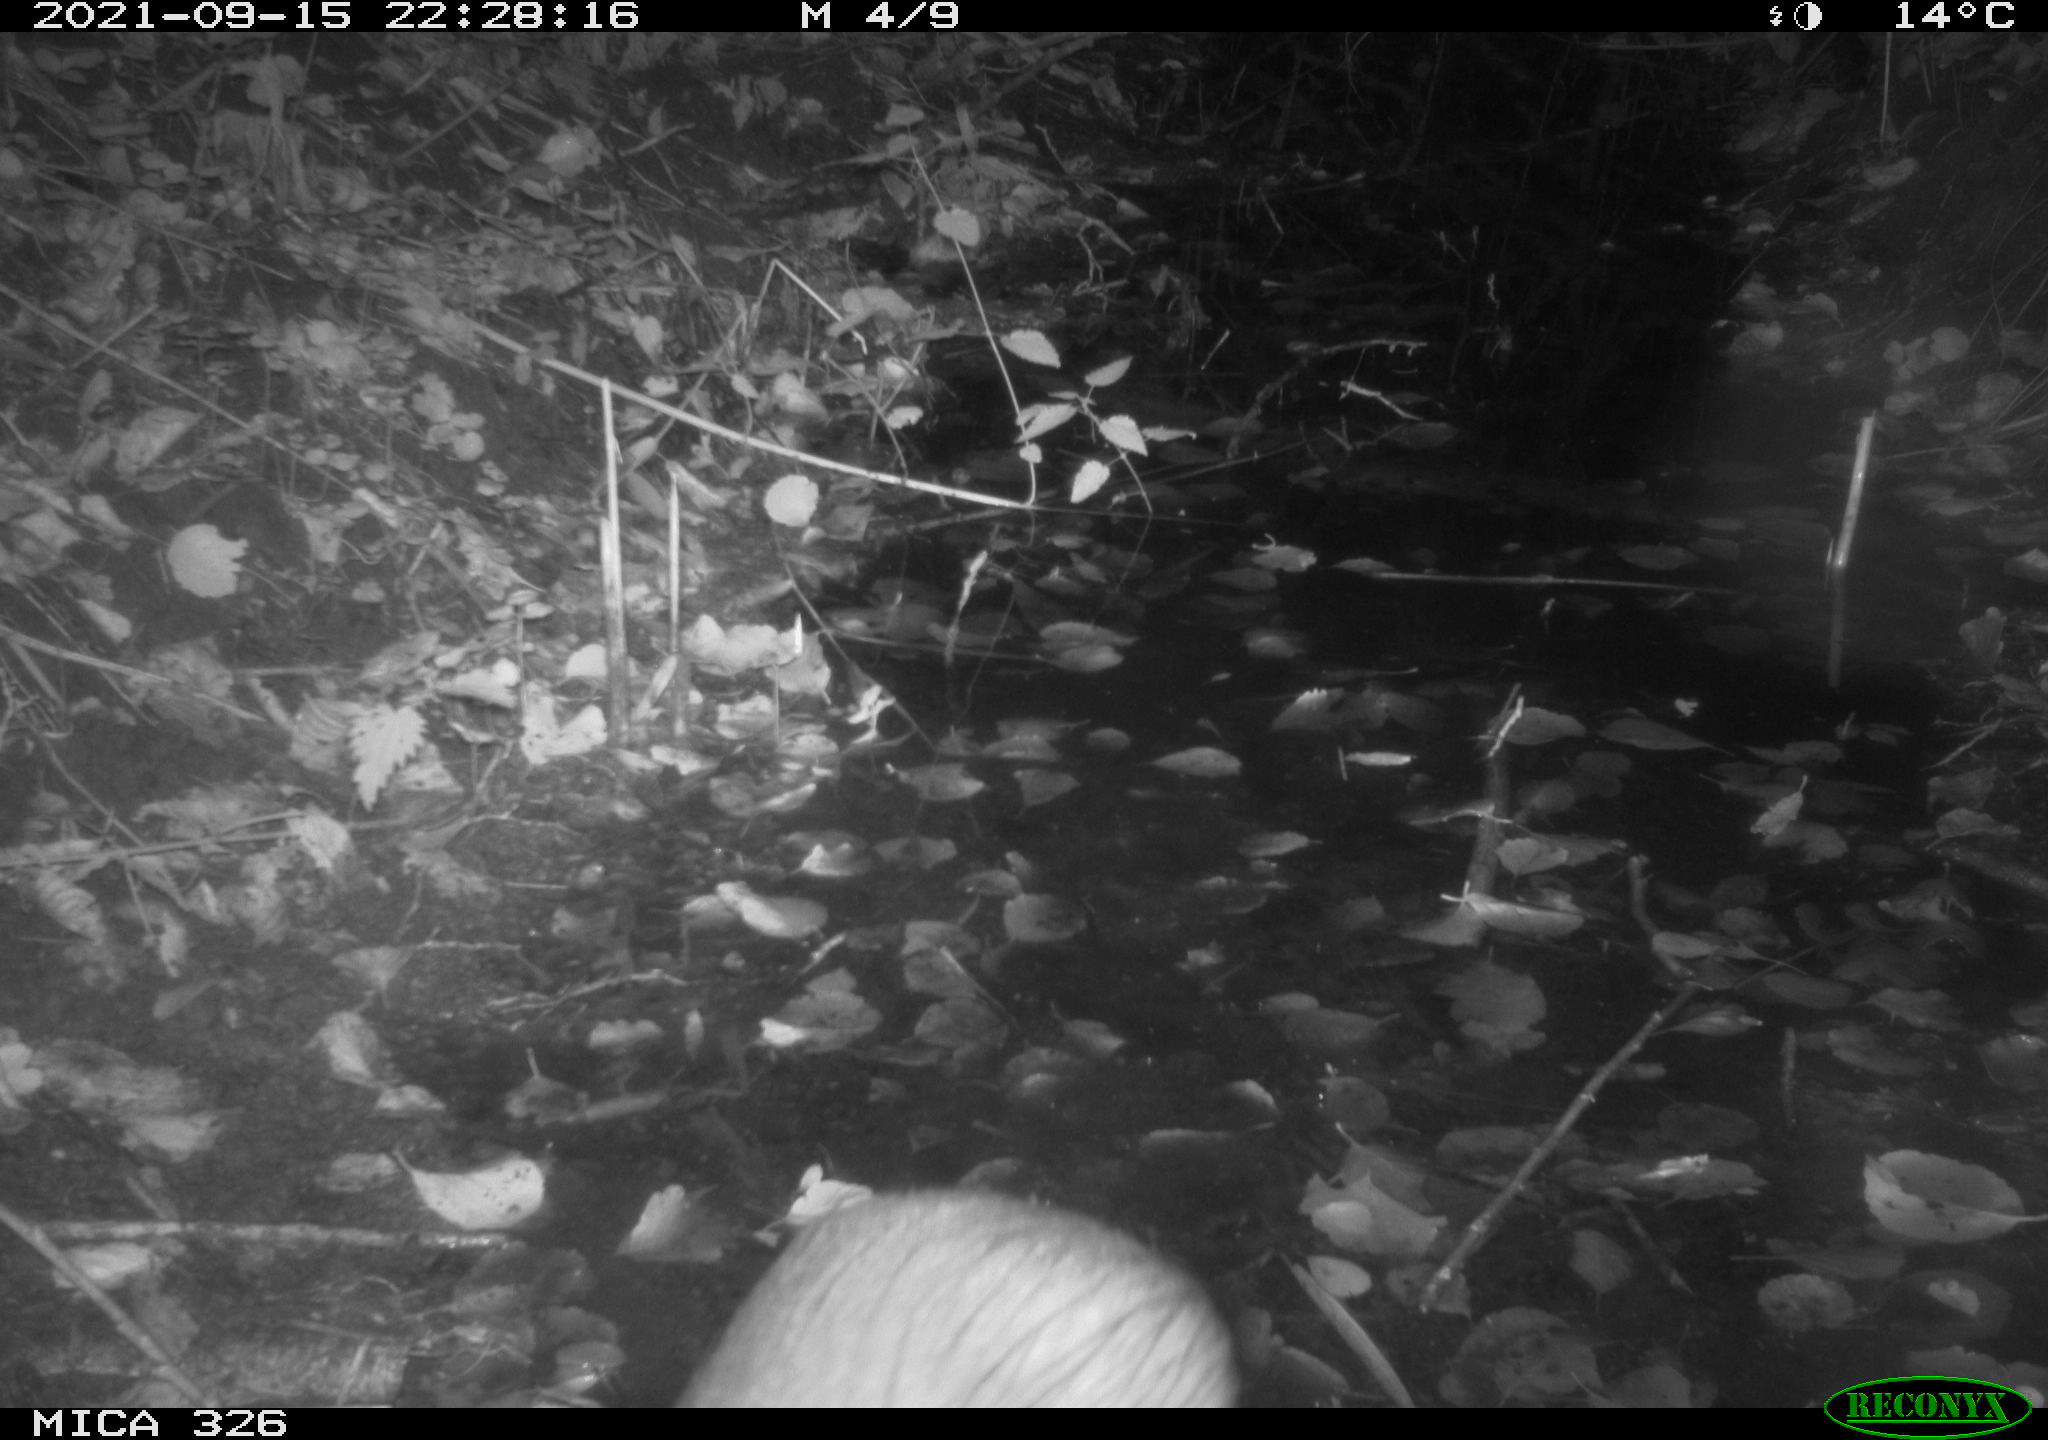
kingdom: Animalia
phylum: Chordata
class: Mammalia
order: Rodentia
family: Myocastoridae
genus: Myocastor
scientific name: Myocastor coypus
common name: Coypu
